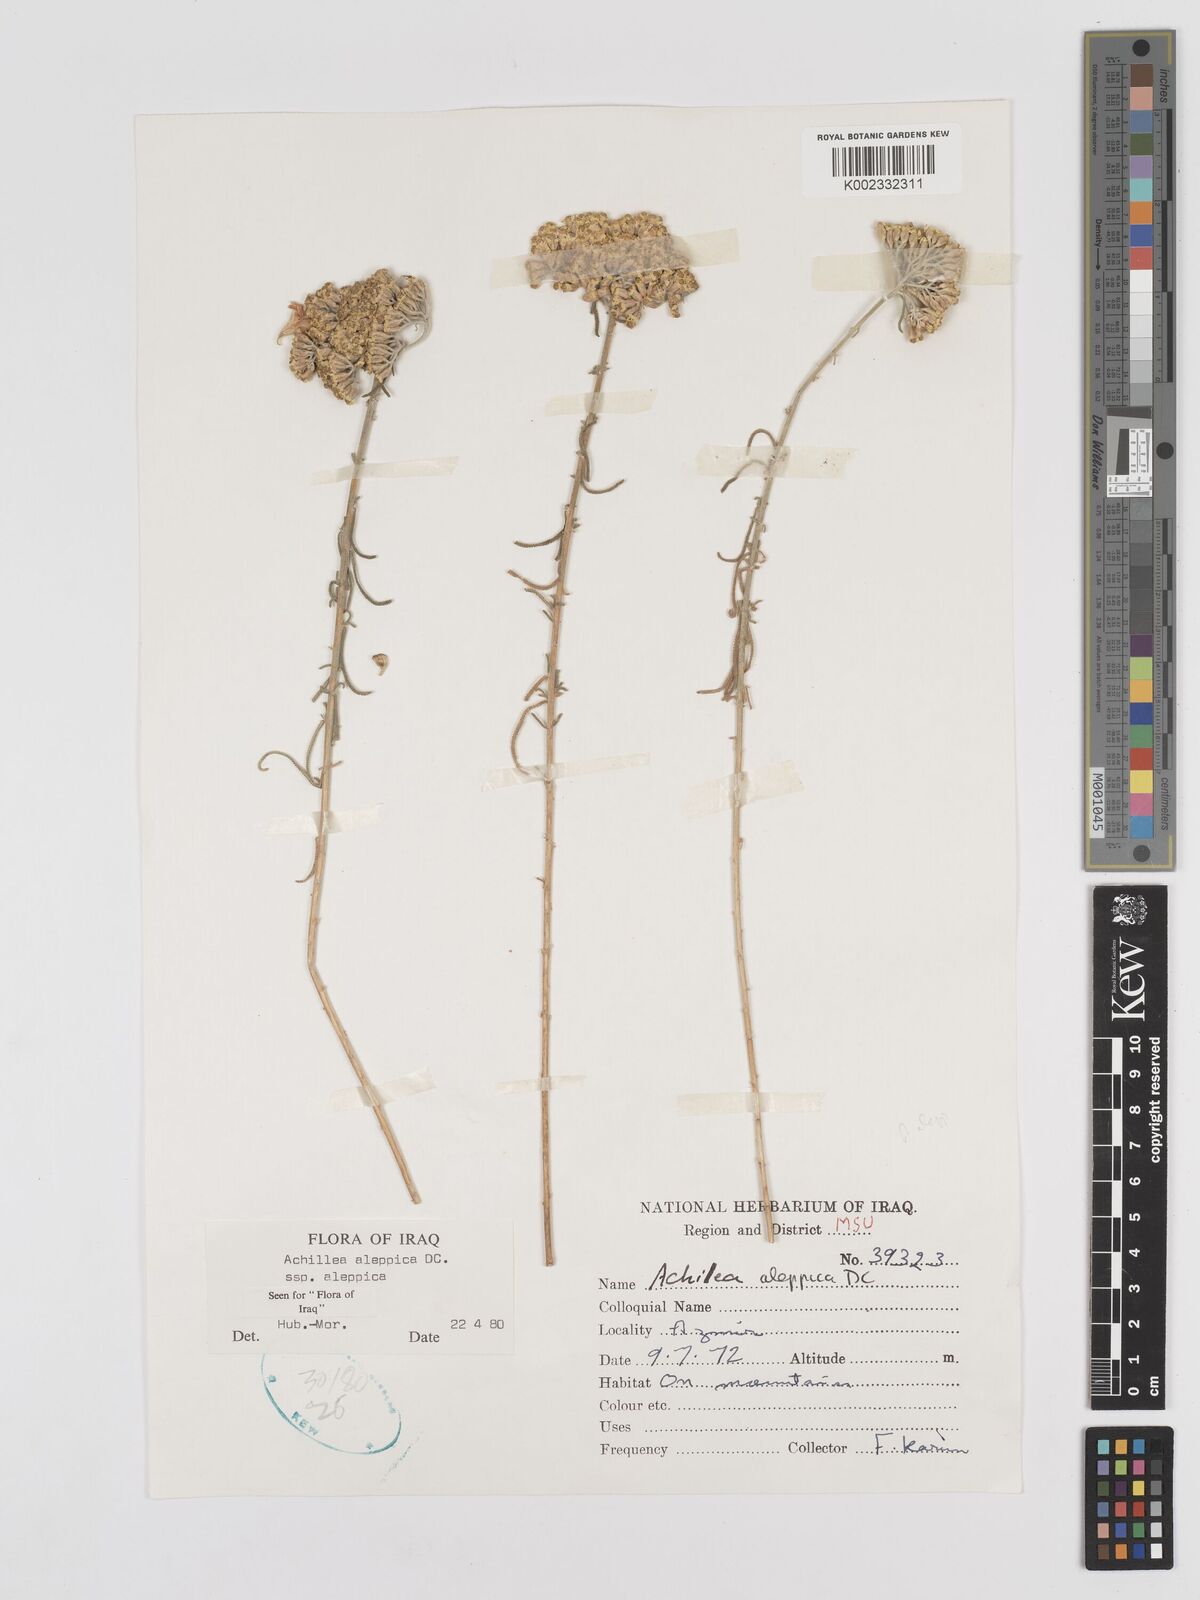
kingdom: Plantae
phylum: Tracheophyta
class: Magnoliopsida
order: Asterales
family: Asteraceae
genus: Achillea
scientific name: Achillea aleppica
